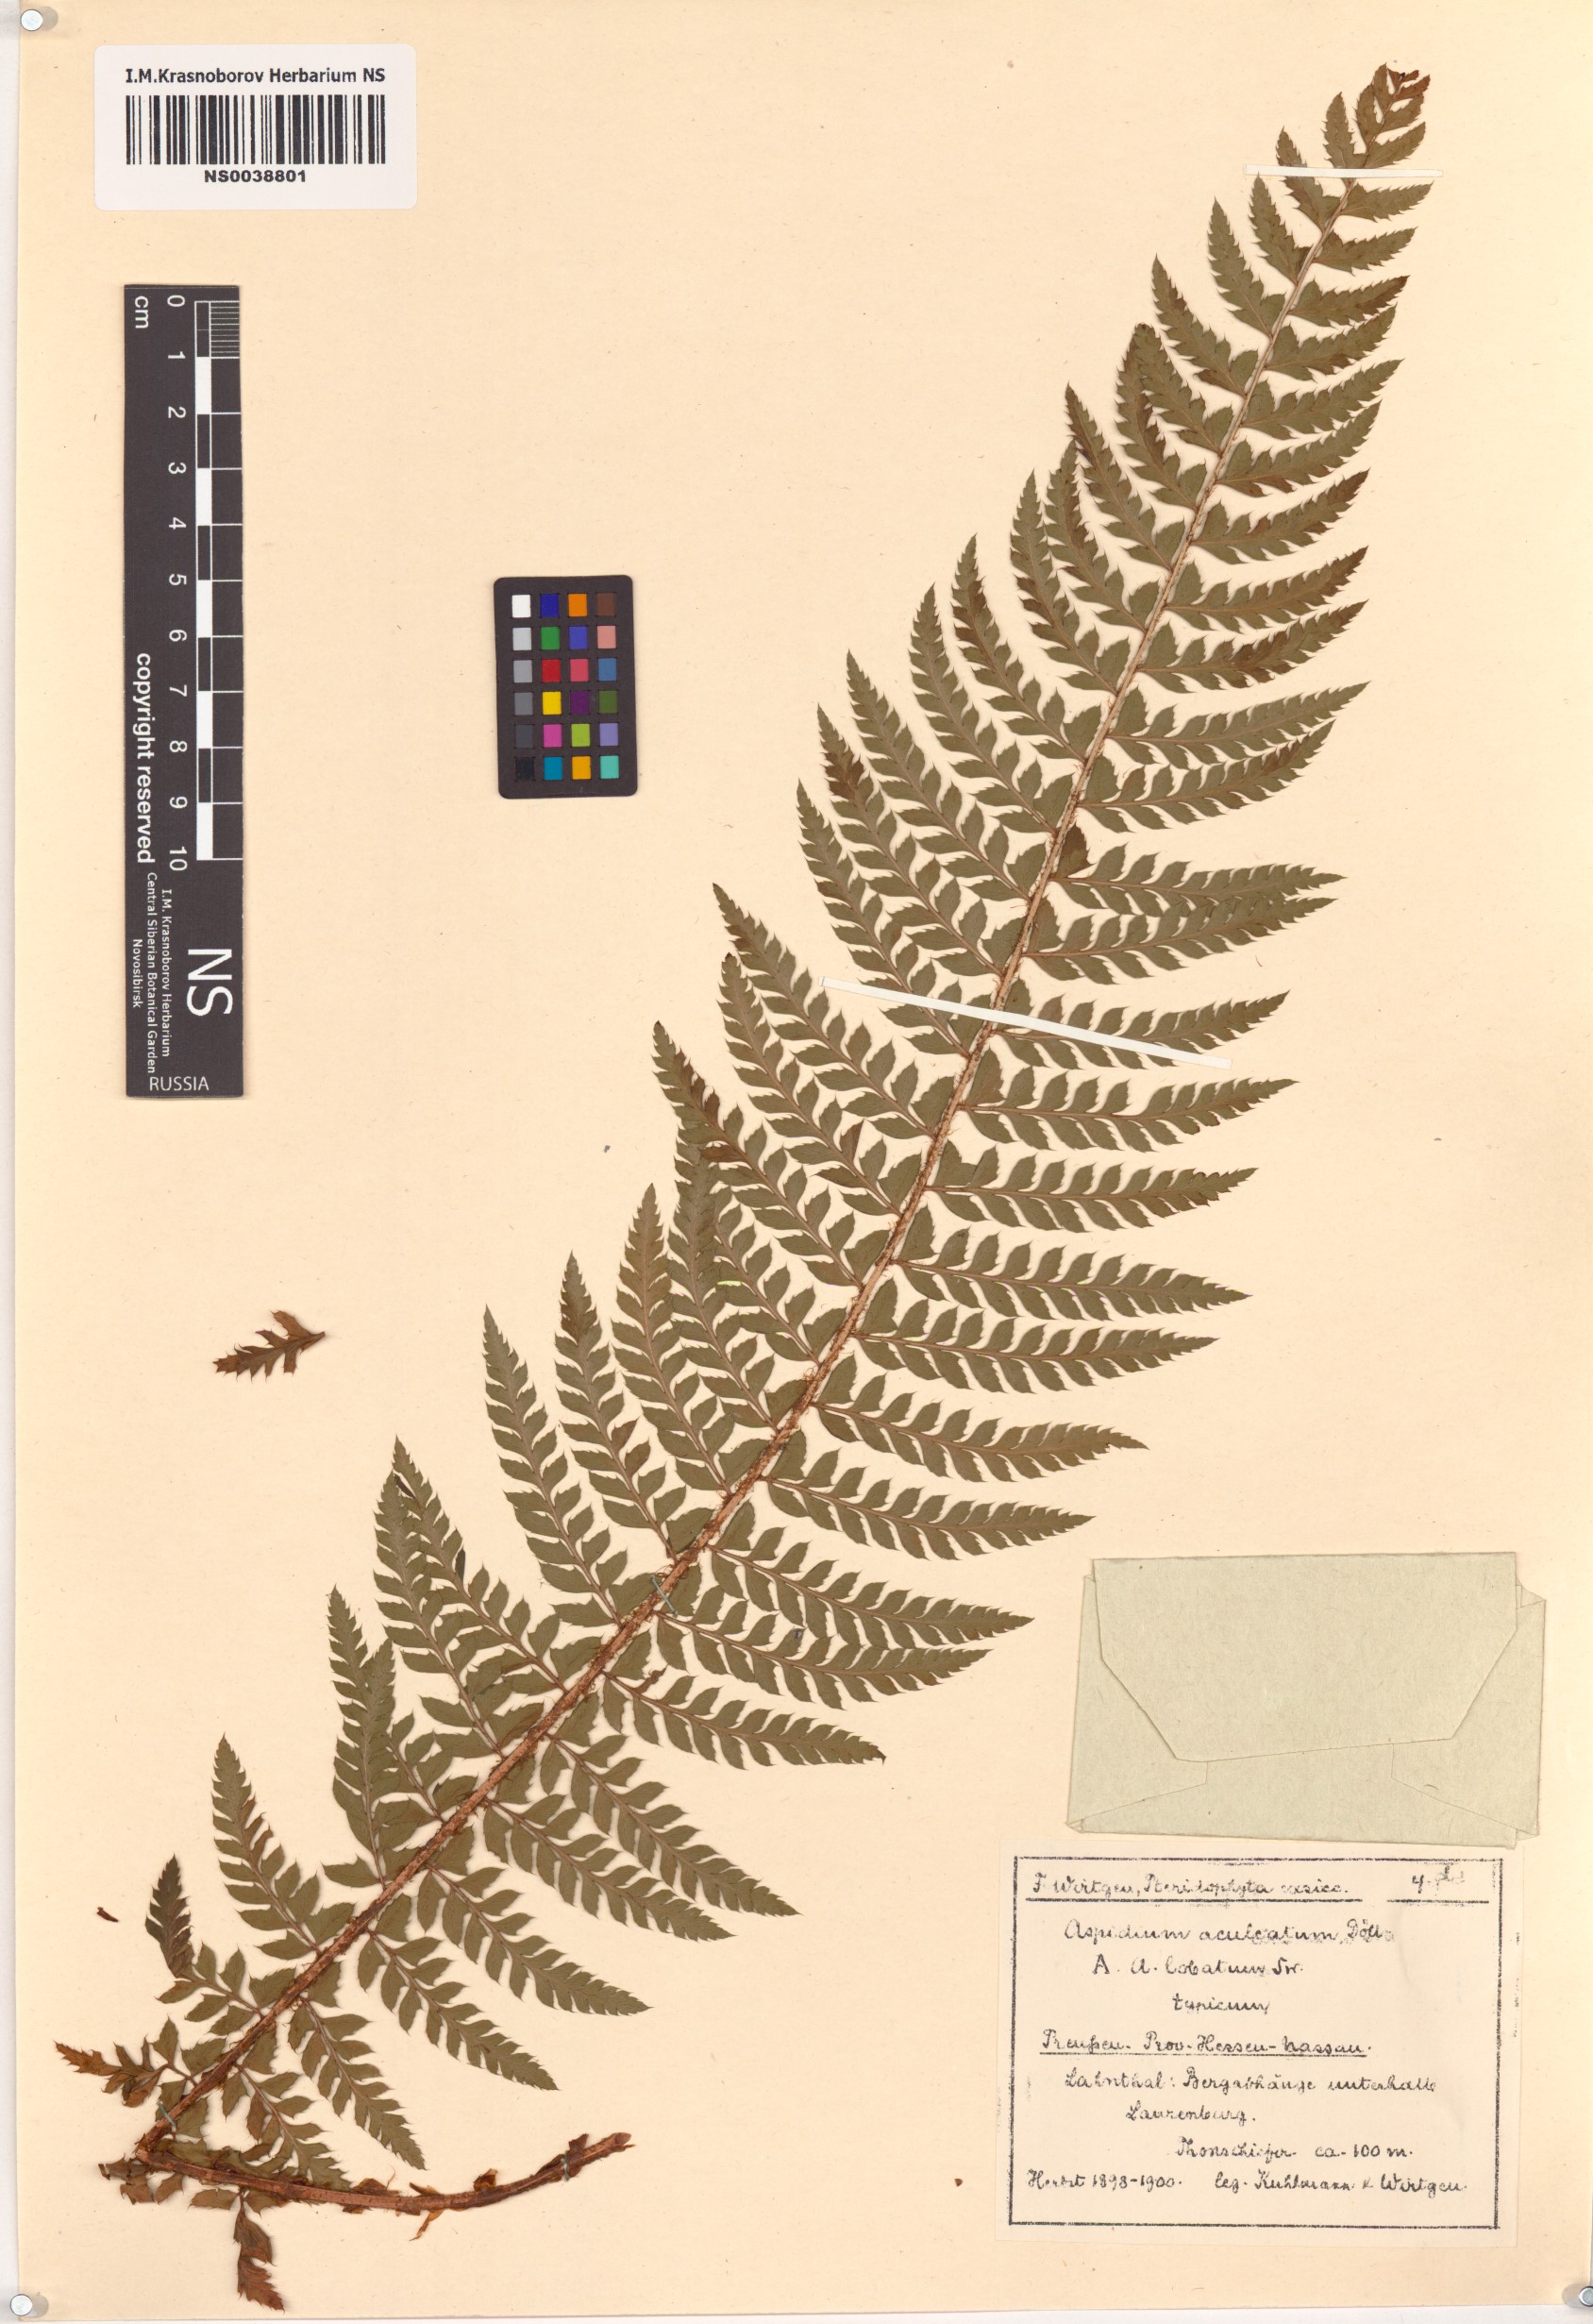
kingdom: Plantae
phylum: Tracheophyta
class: Polypodiopsida
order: Polypodiales
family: Dryopteridaceae
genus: Polystichum
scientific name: Polystichum aculeatum
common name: Hard shield-fern
